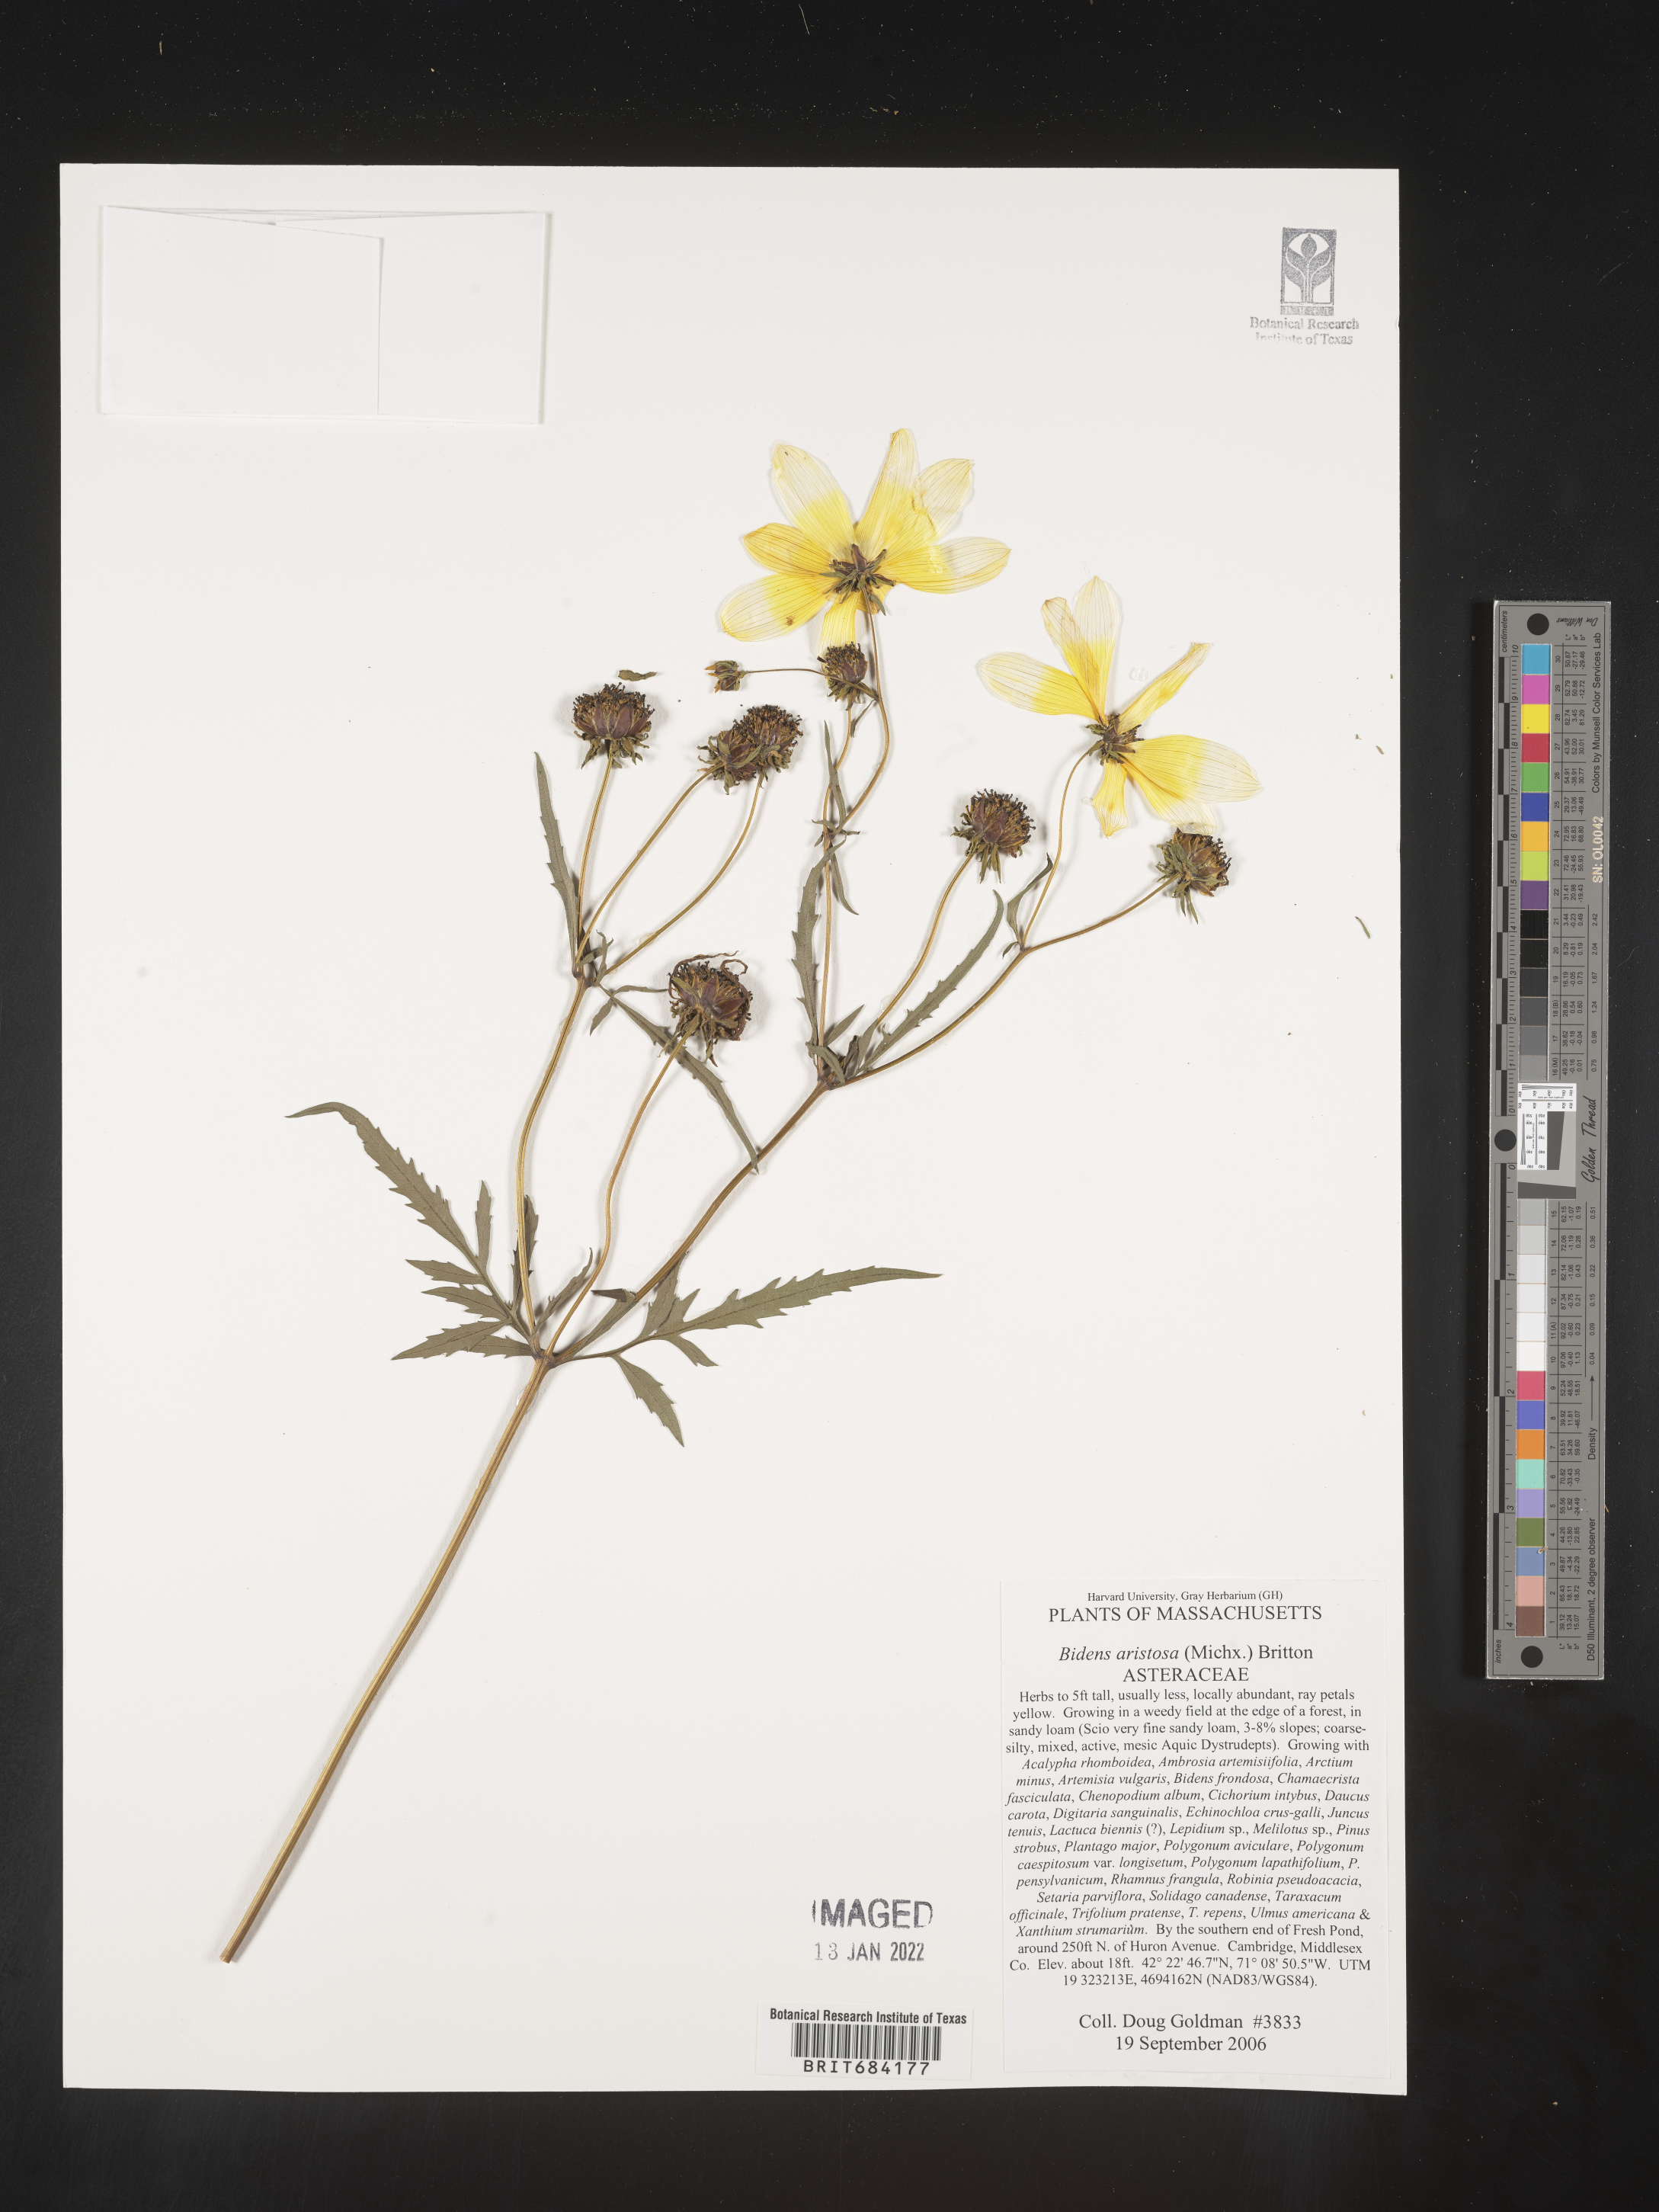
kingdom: Plantae
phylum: Tracheophyta
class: Magnoliopsida
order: Asterales
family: Asteraceae
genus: Bidens
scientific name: Bidens aristosa
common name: Western tickseed
